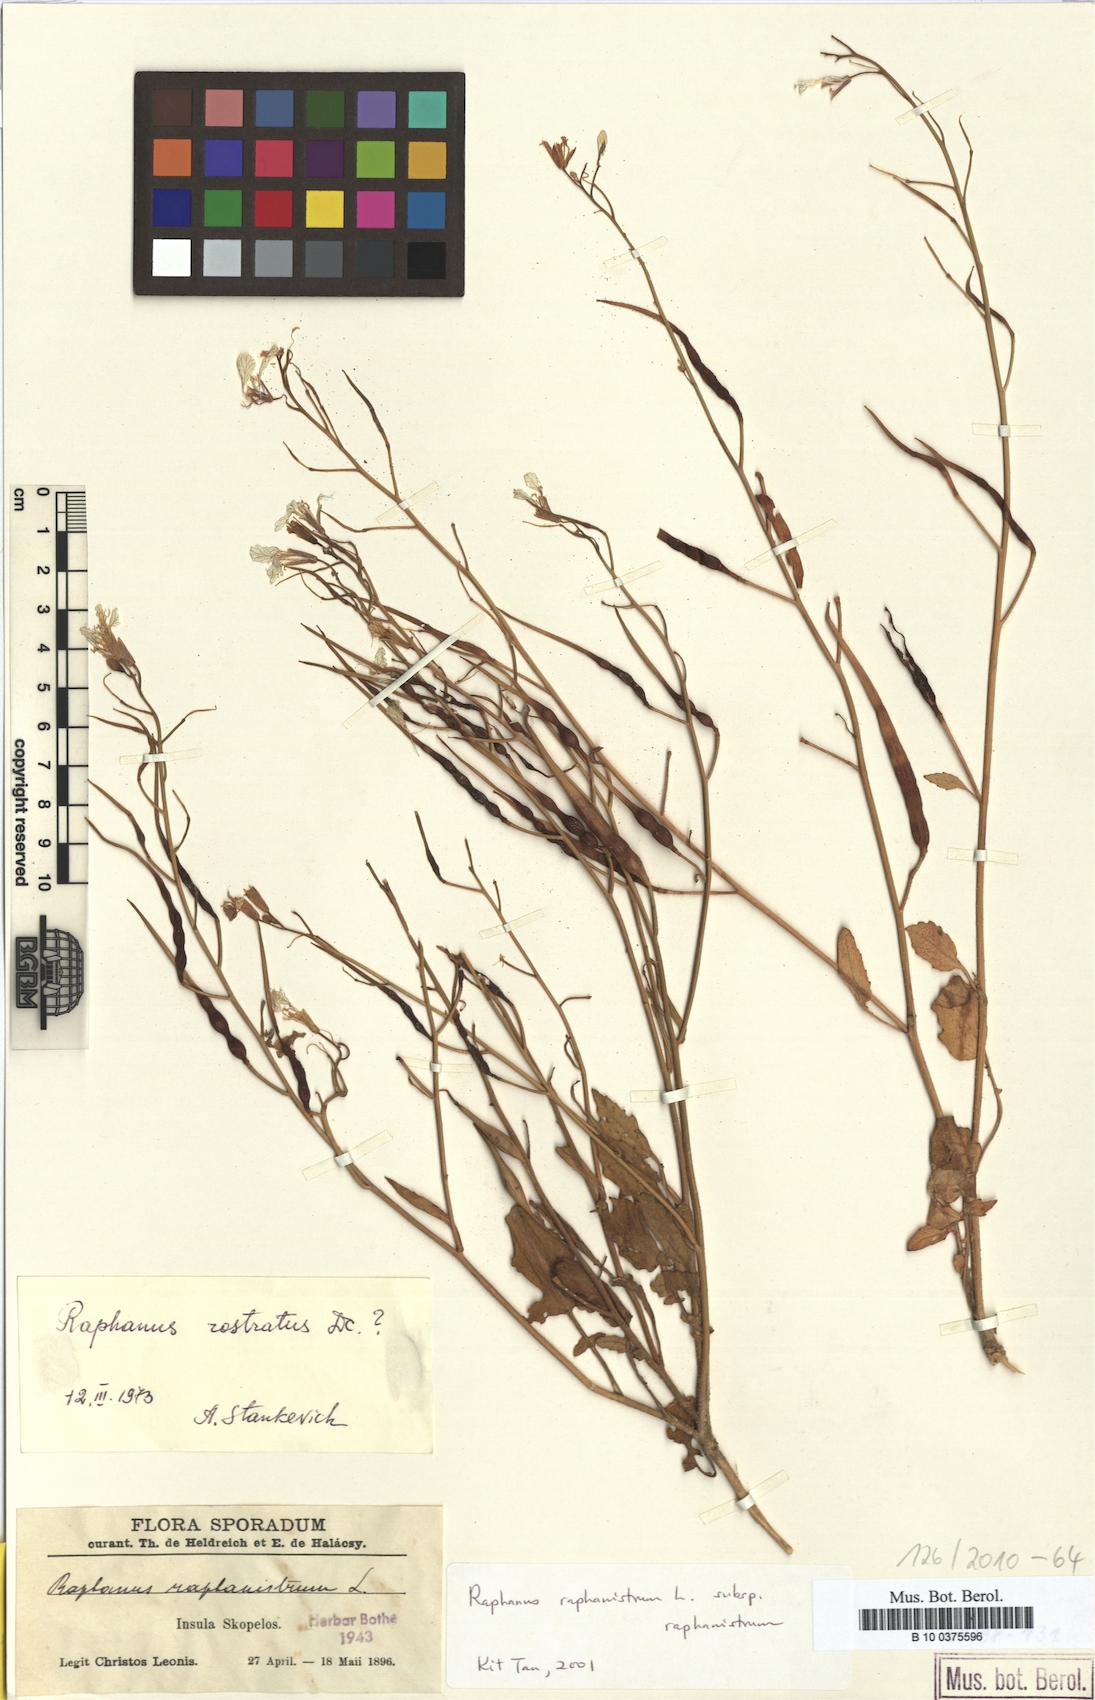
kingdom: Plantae
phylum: Tracheophyta
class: Magnoliopsida
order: Brassicales
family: Brassicaceae
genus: Raphanus
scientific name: Raphanus raphanistrum
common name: Wild radish
